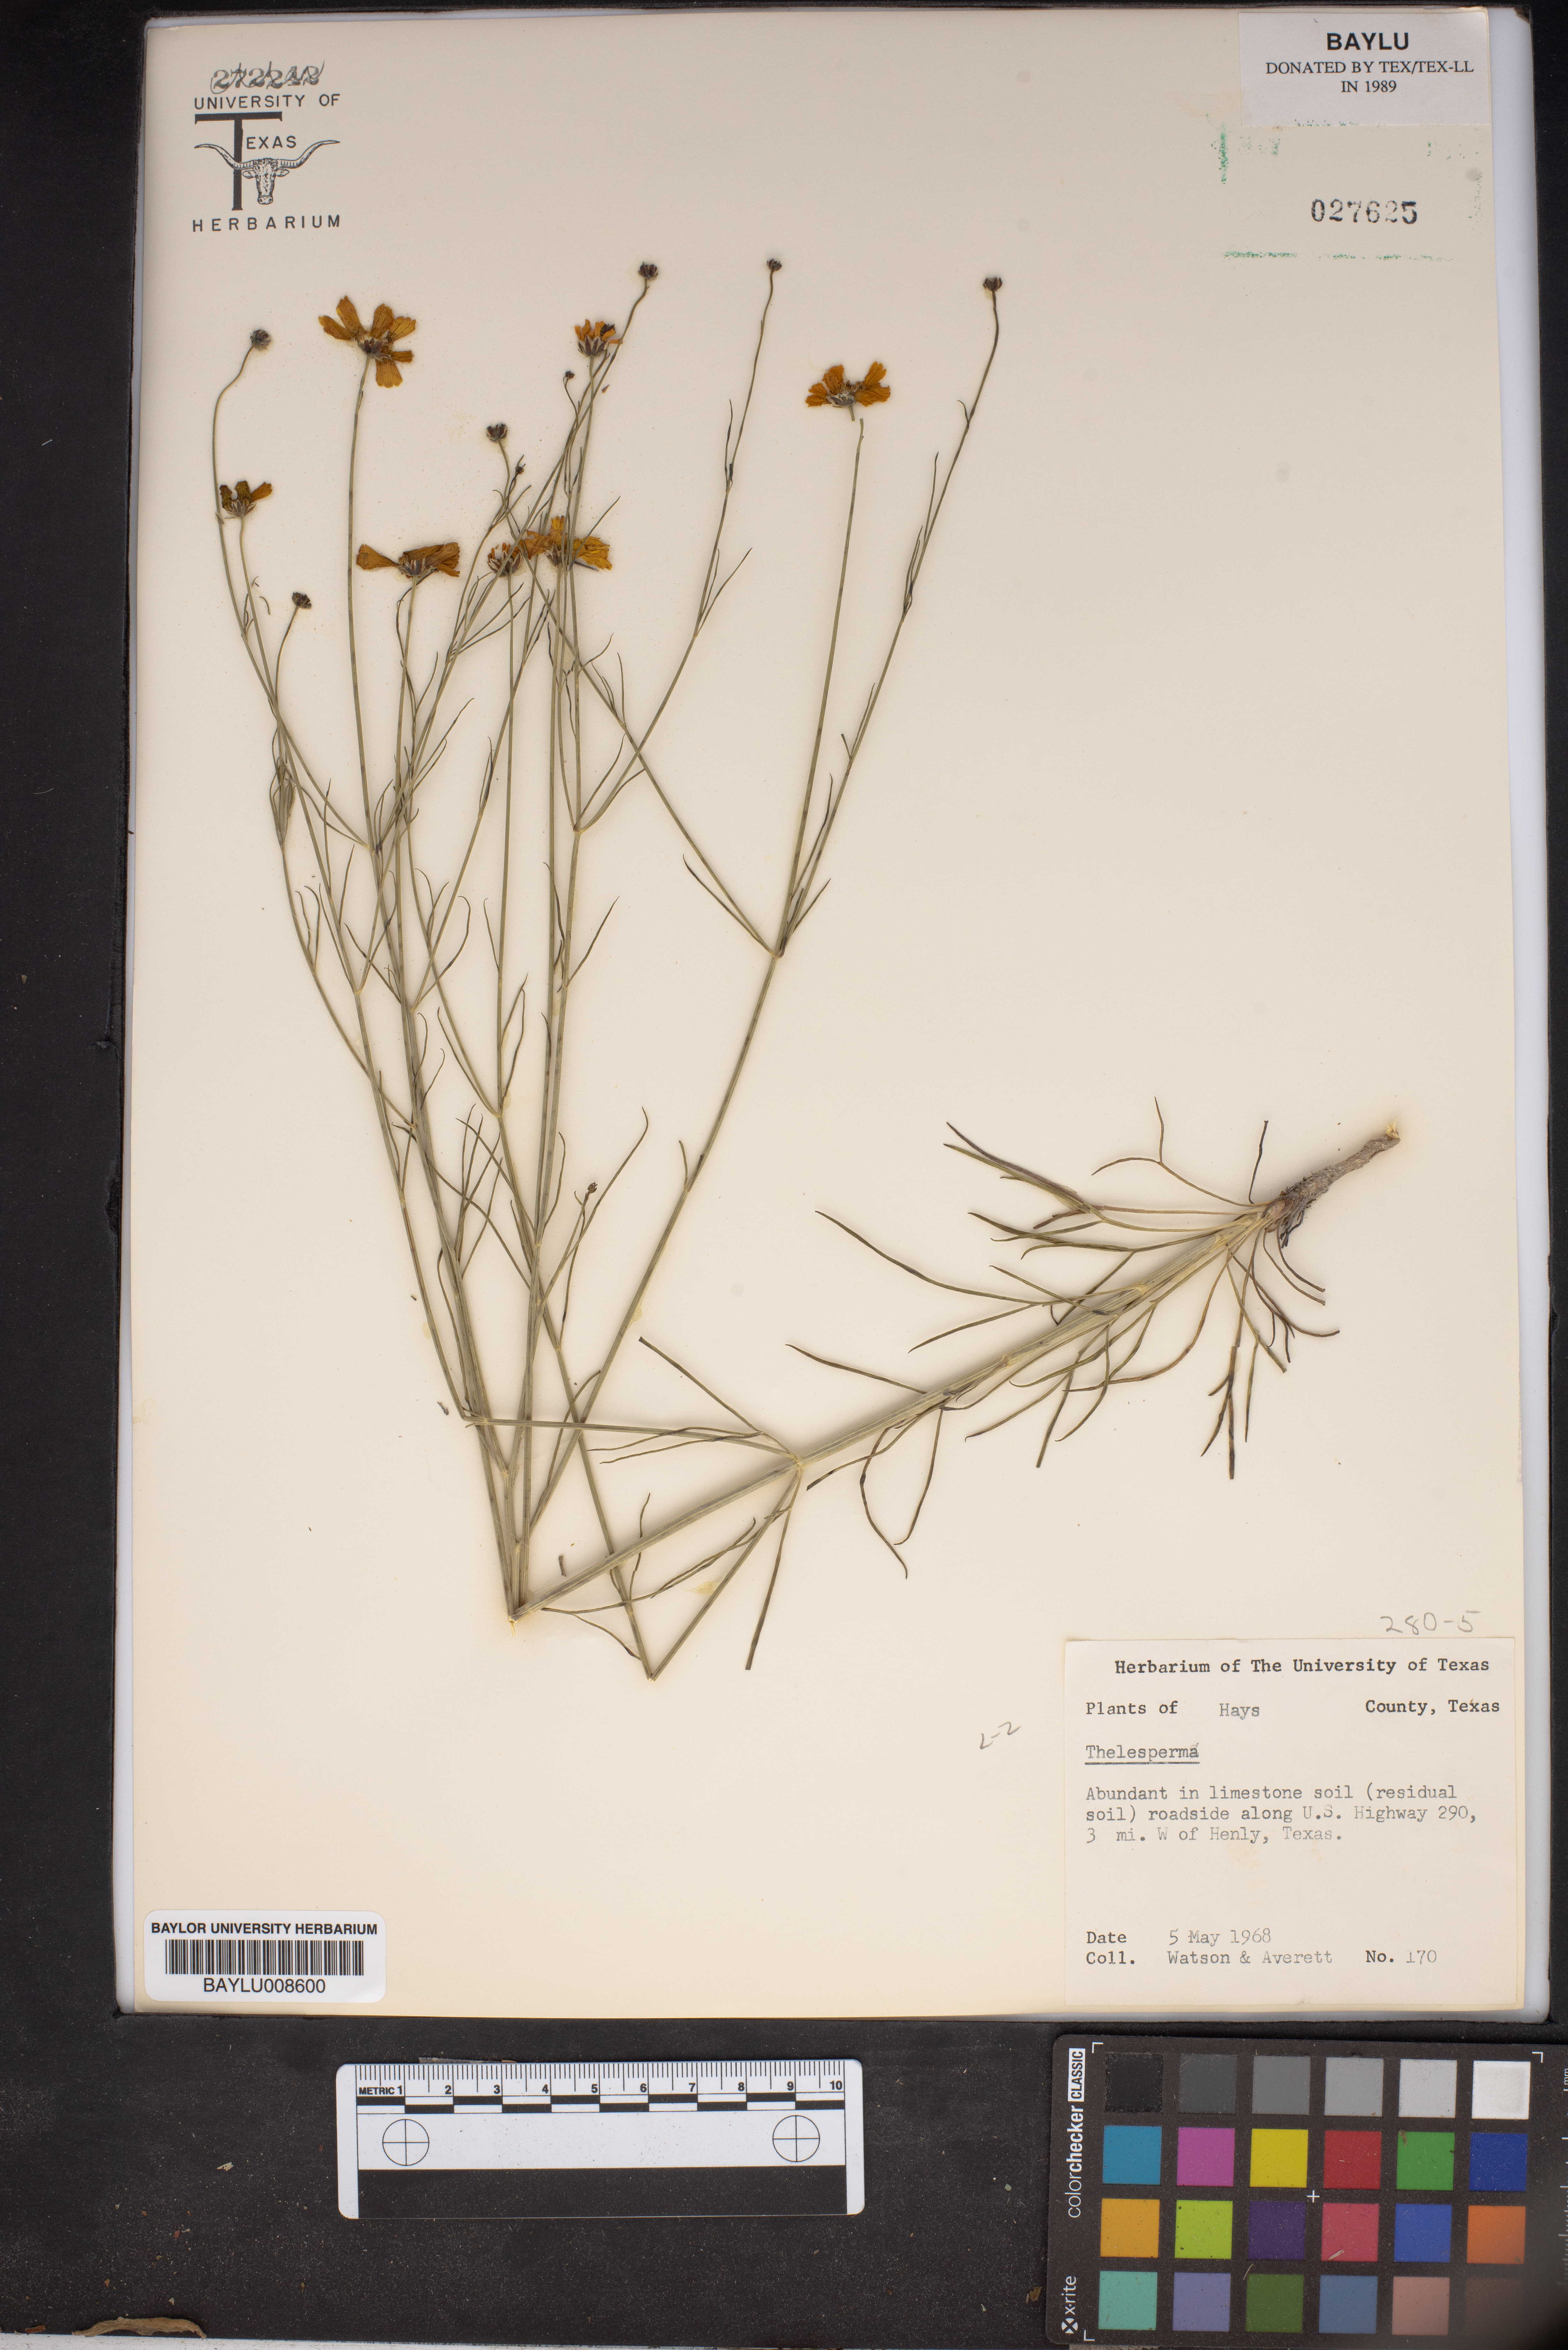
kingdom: Plantae
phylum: Tracheophyta
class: Magnoliopsida
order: Asterales
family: Asteraceae
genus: Thelesperma
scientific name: Thelesperma
